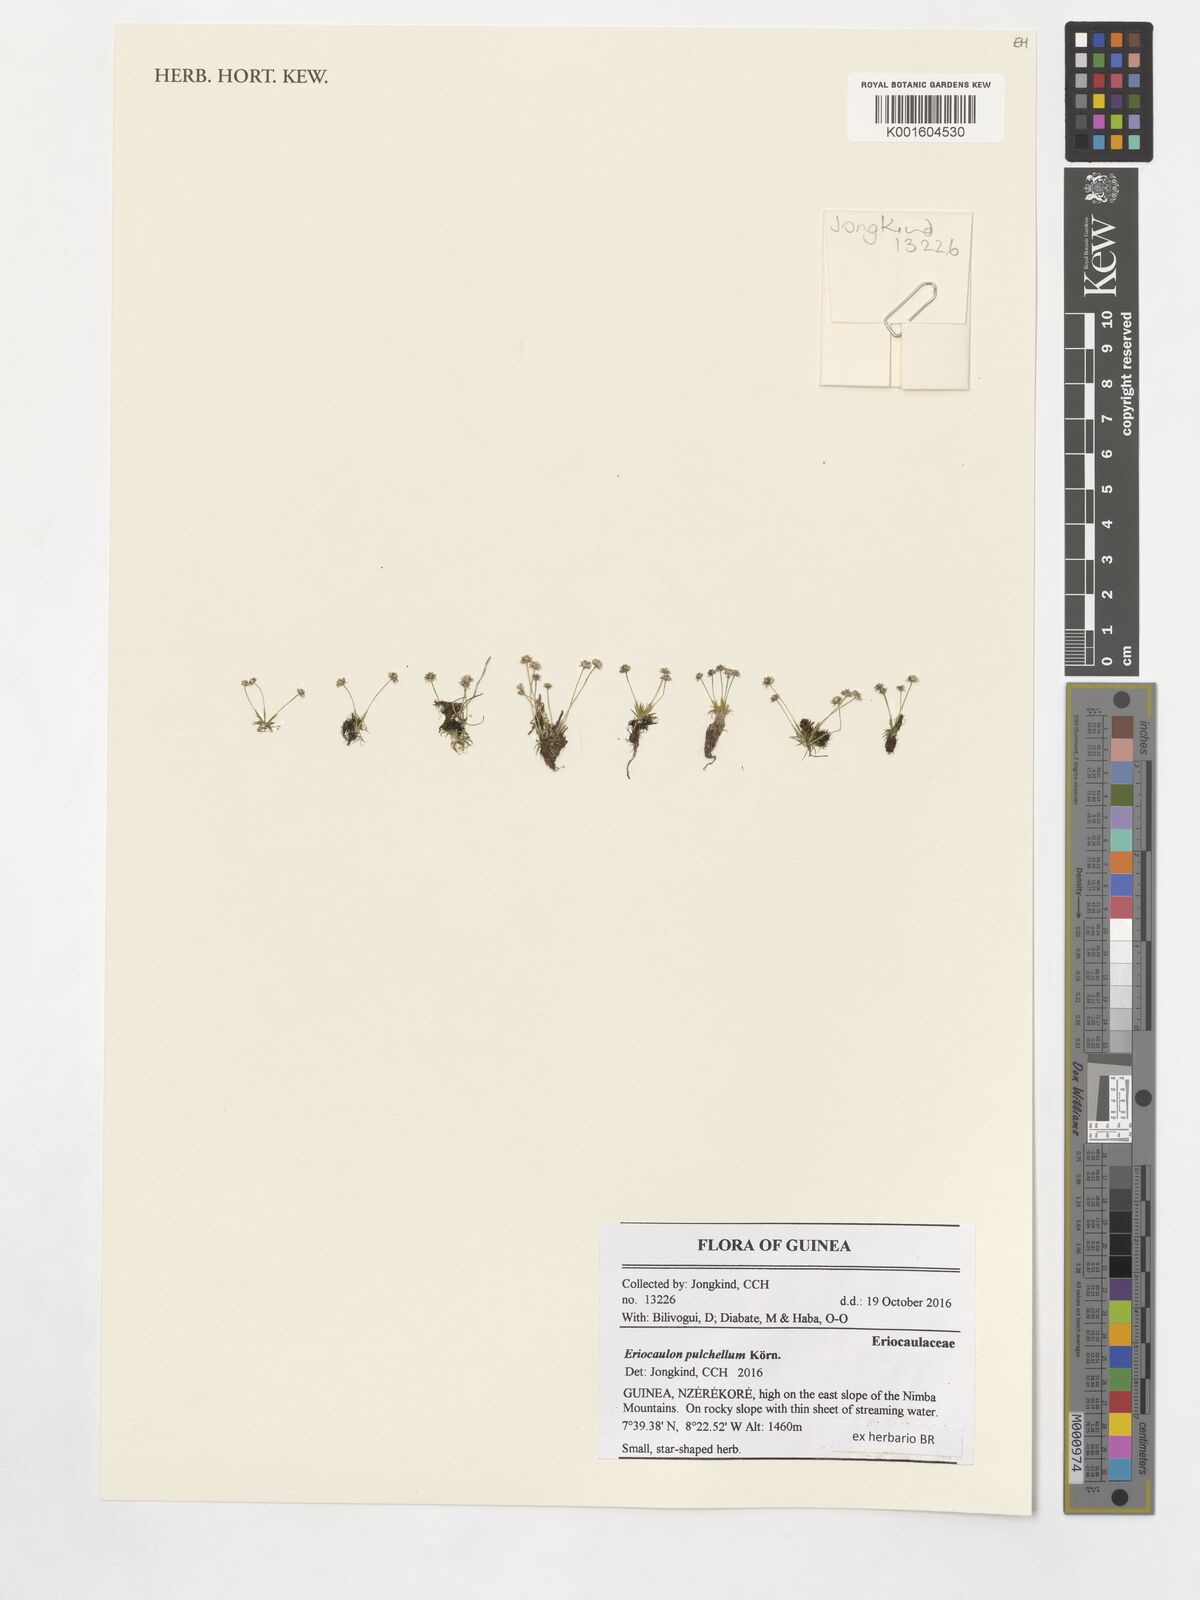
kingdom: Plantae
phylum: Tracheophyta
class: Liliopsida
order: Poales
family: Eriocaulaceae
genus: Eriocaulon
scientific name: Eriocaulon pulchellum
